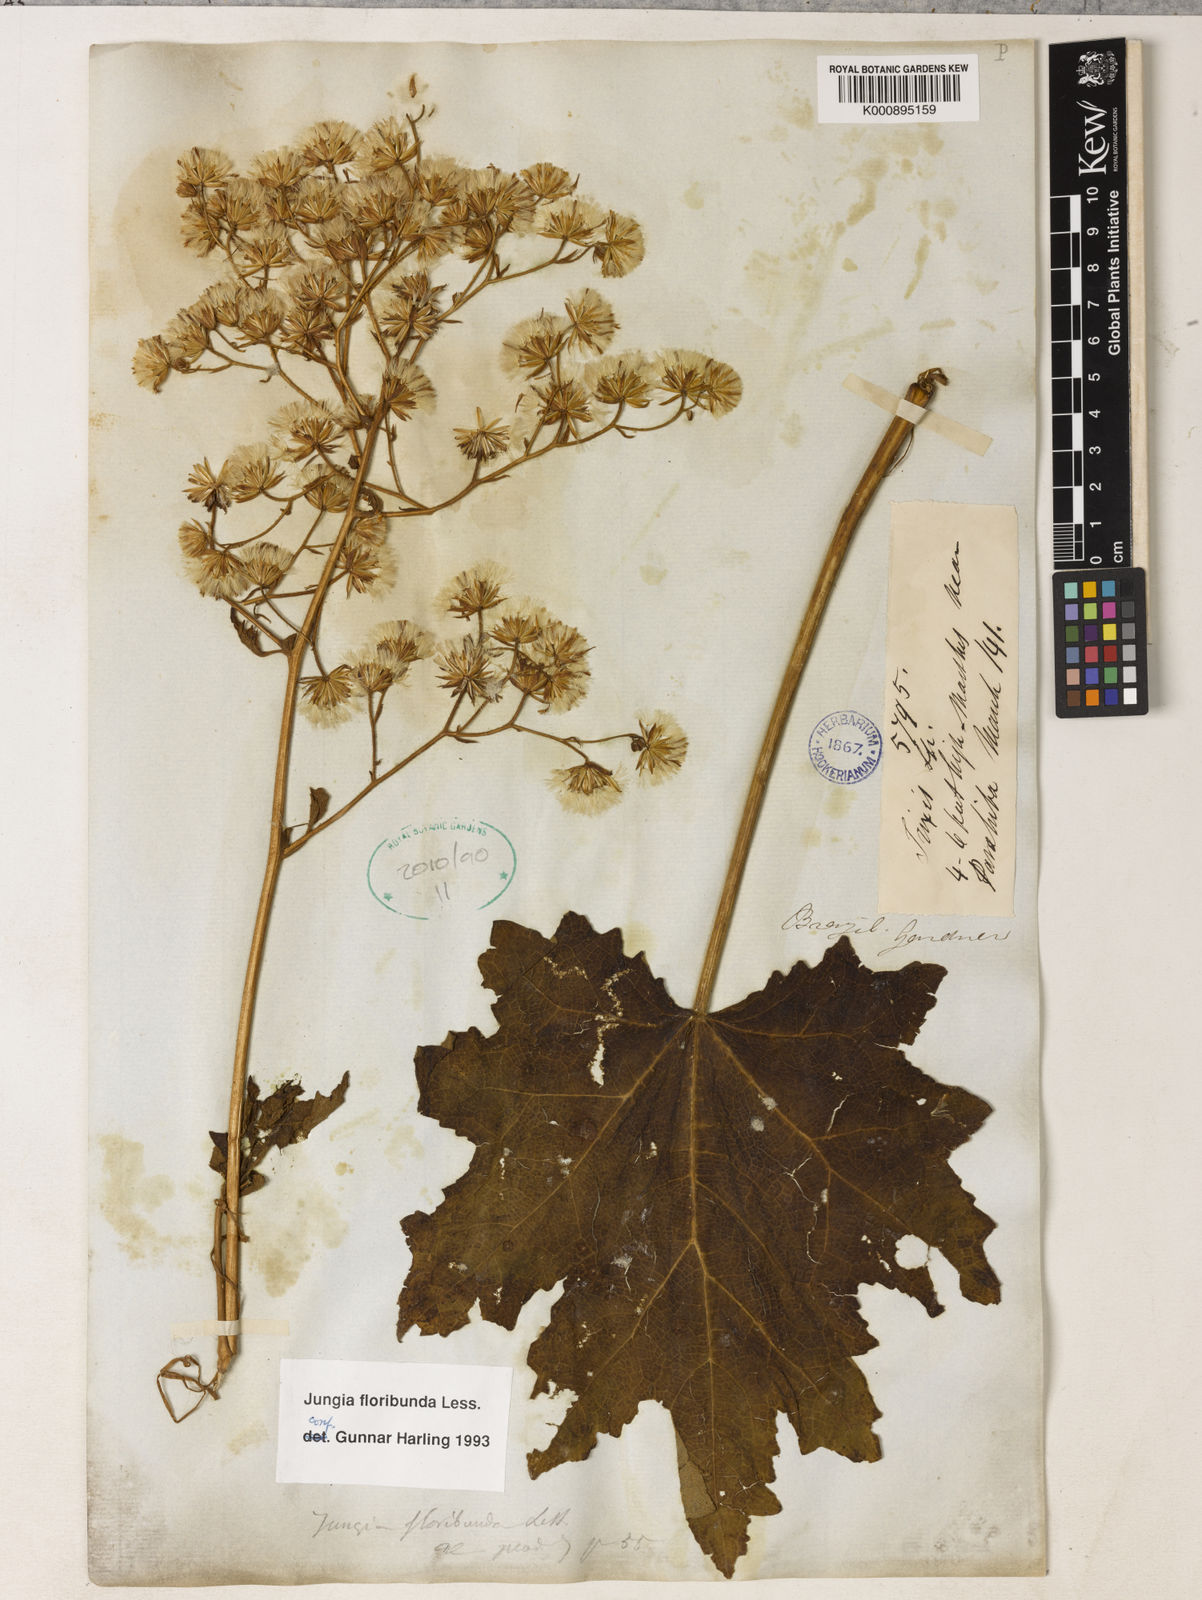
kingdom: Plantae
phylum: Tracheophyta
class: Magnoliopsida
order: Asterales
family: Asteraceae
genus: Jungia
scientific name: Jungia floribunda
